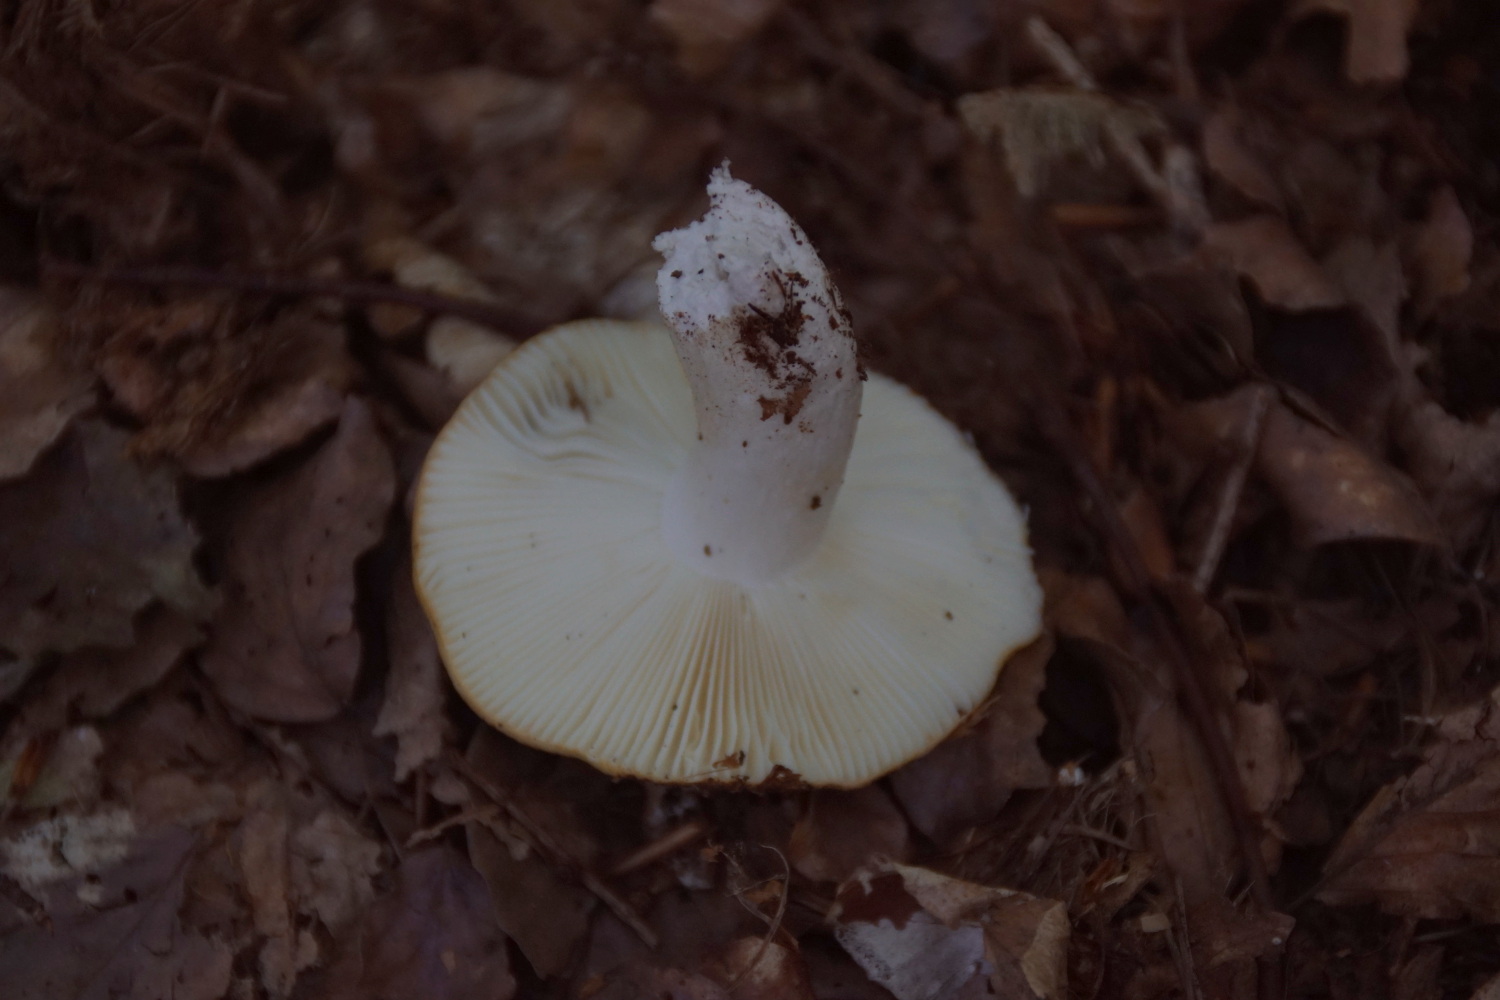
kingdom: Fungi
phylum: Basidiomycota
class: Agaricomycetes
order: Russulales
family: Russulaceae
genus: Russula
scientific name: Russula ochroleuca
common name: okkergul skørhat
